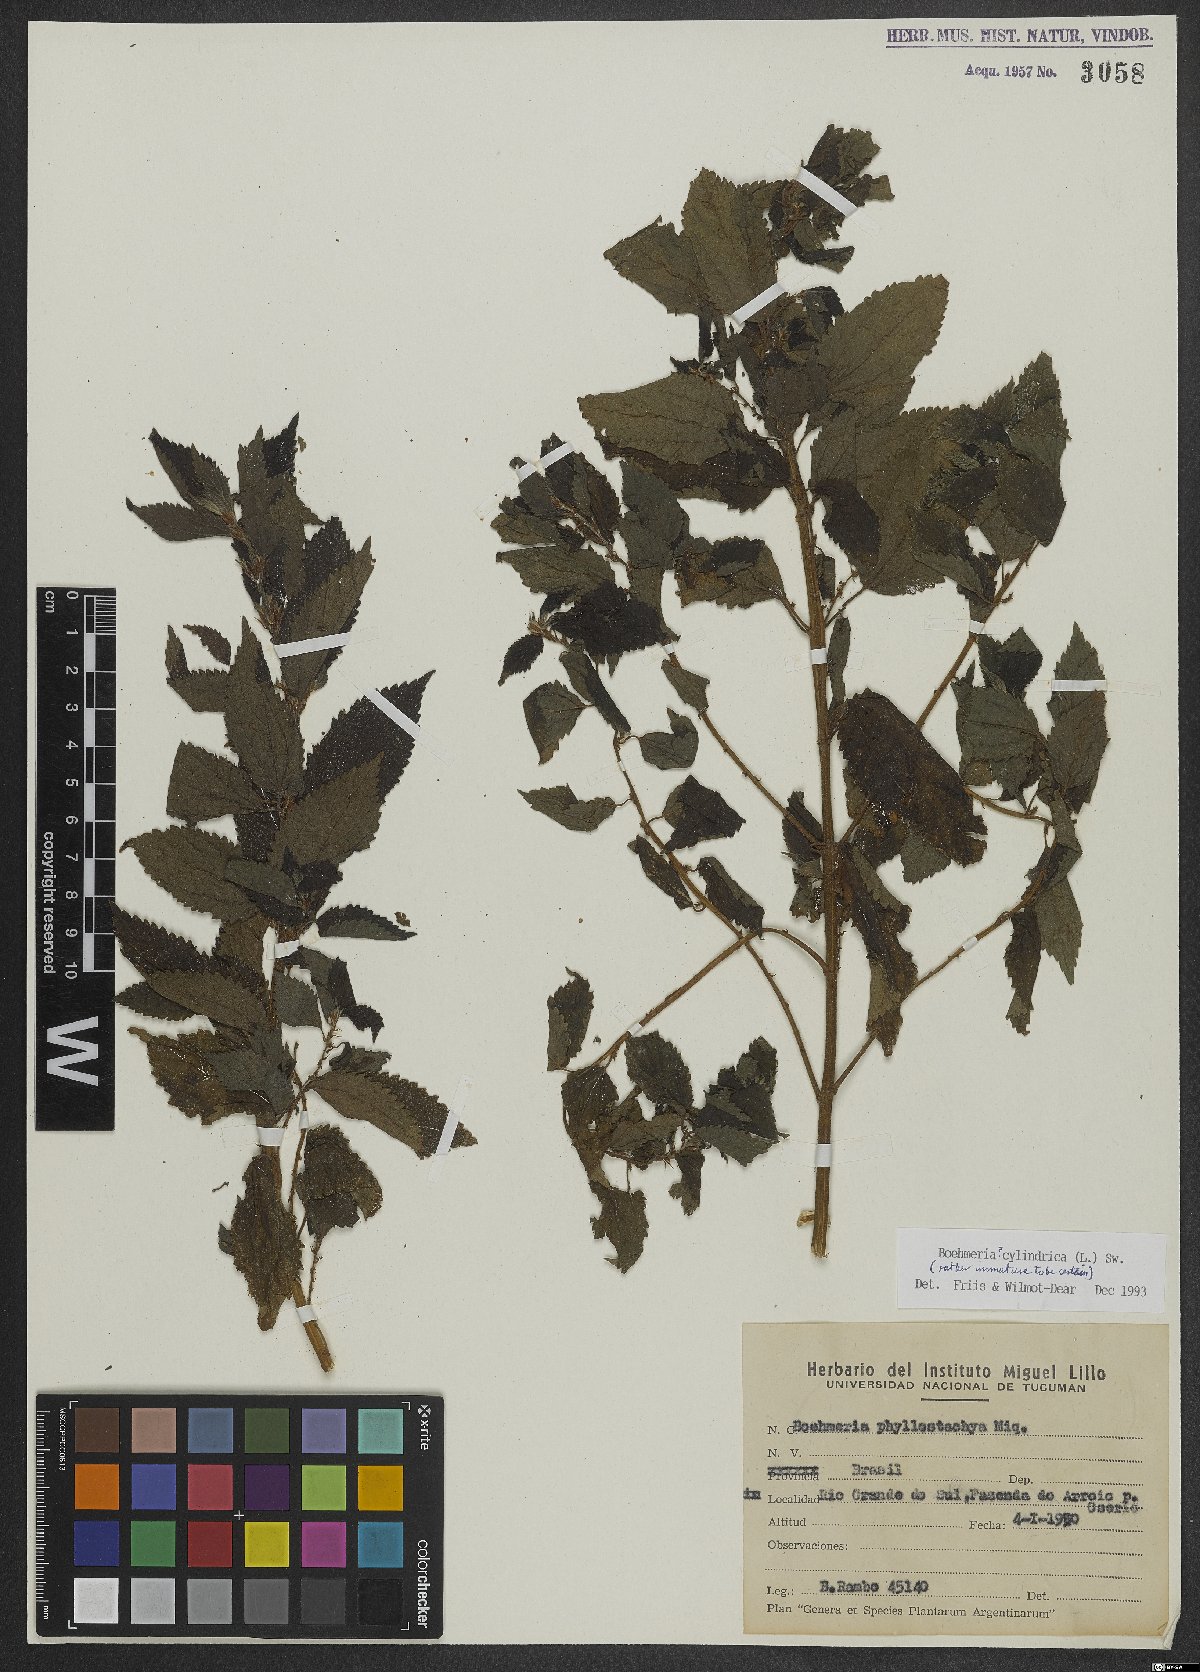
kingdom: Plantae
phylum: Tracheophyta
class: Magnoliopsida
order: Rosales
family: Urticaceae
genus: Boehmeria
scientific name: Boehmeria cylindrica
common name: Bog-hemp
